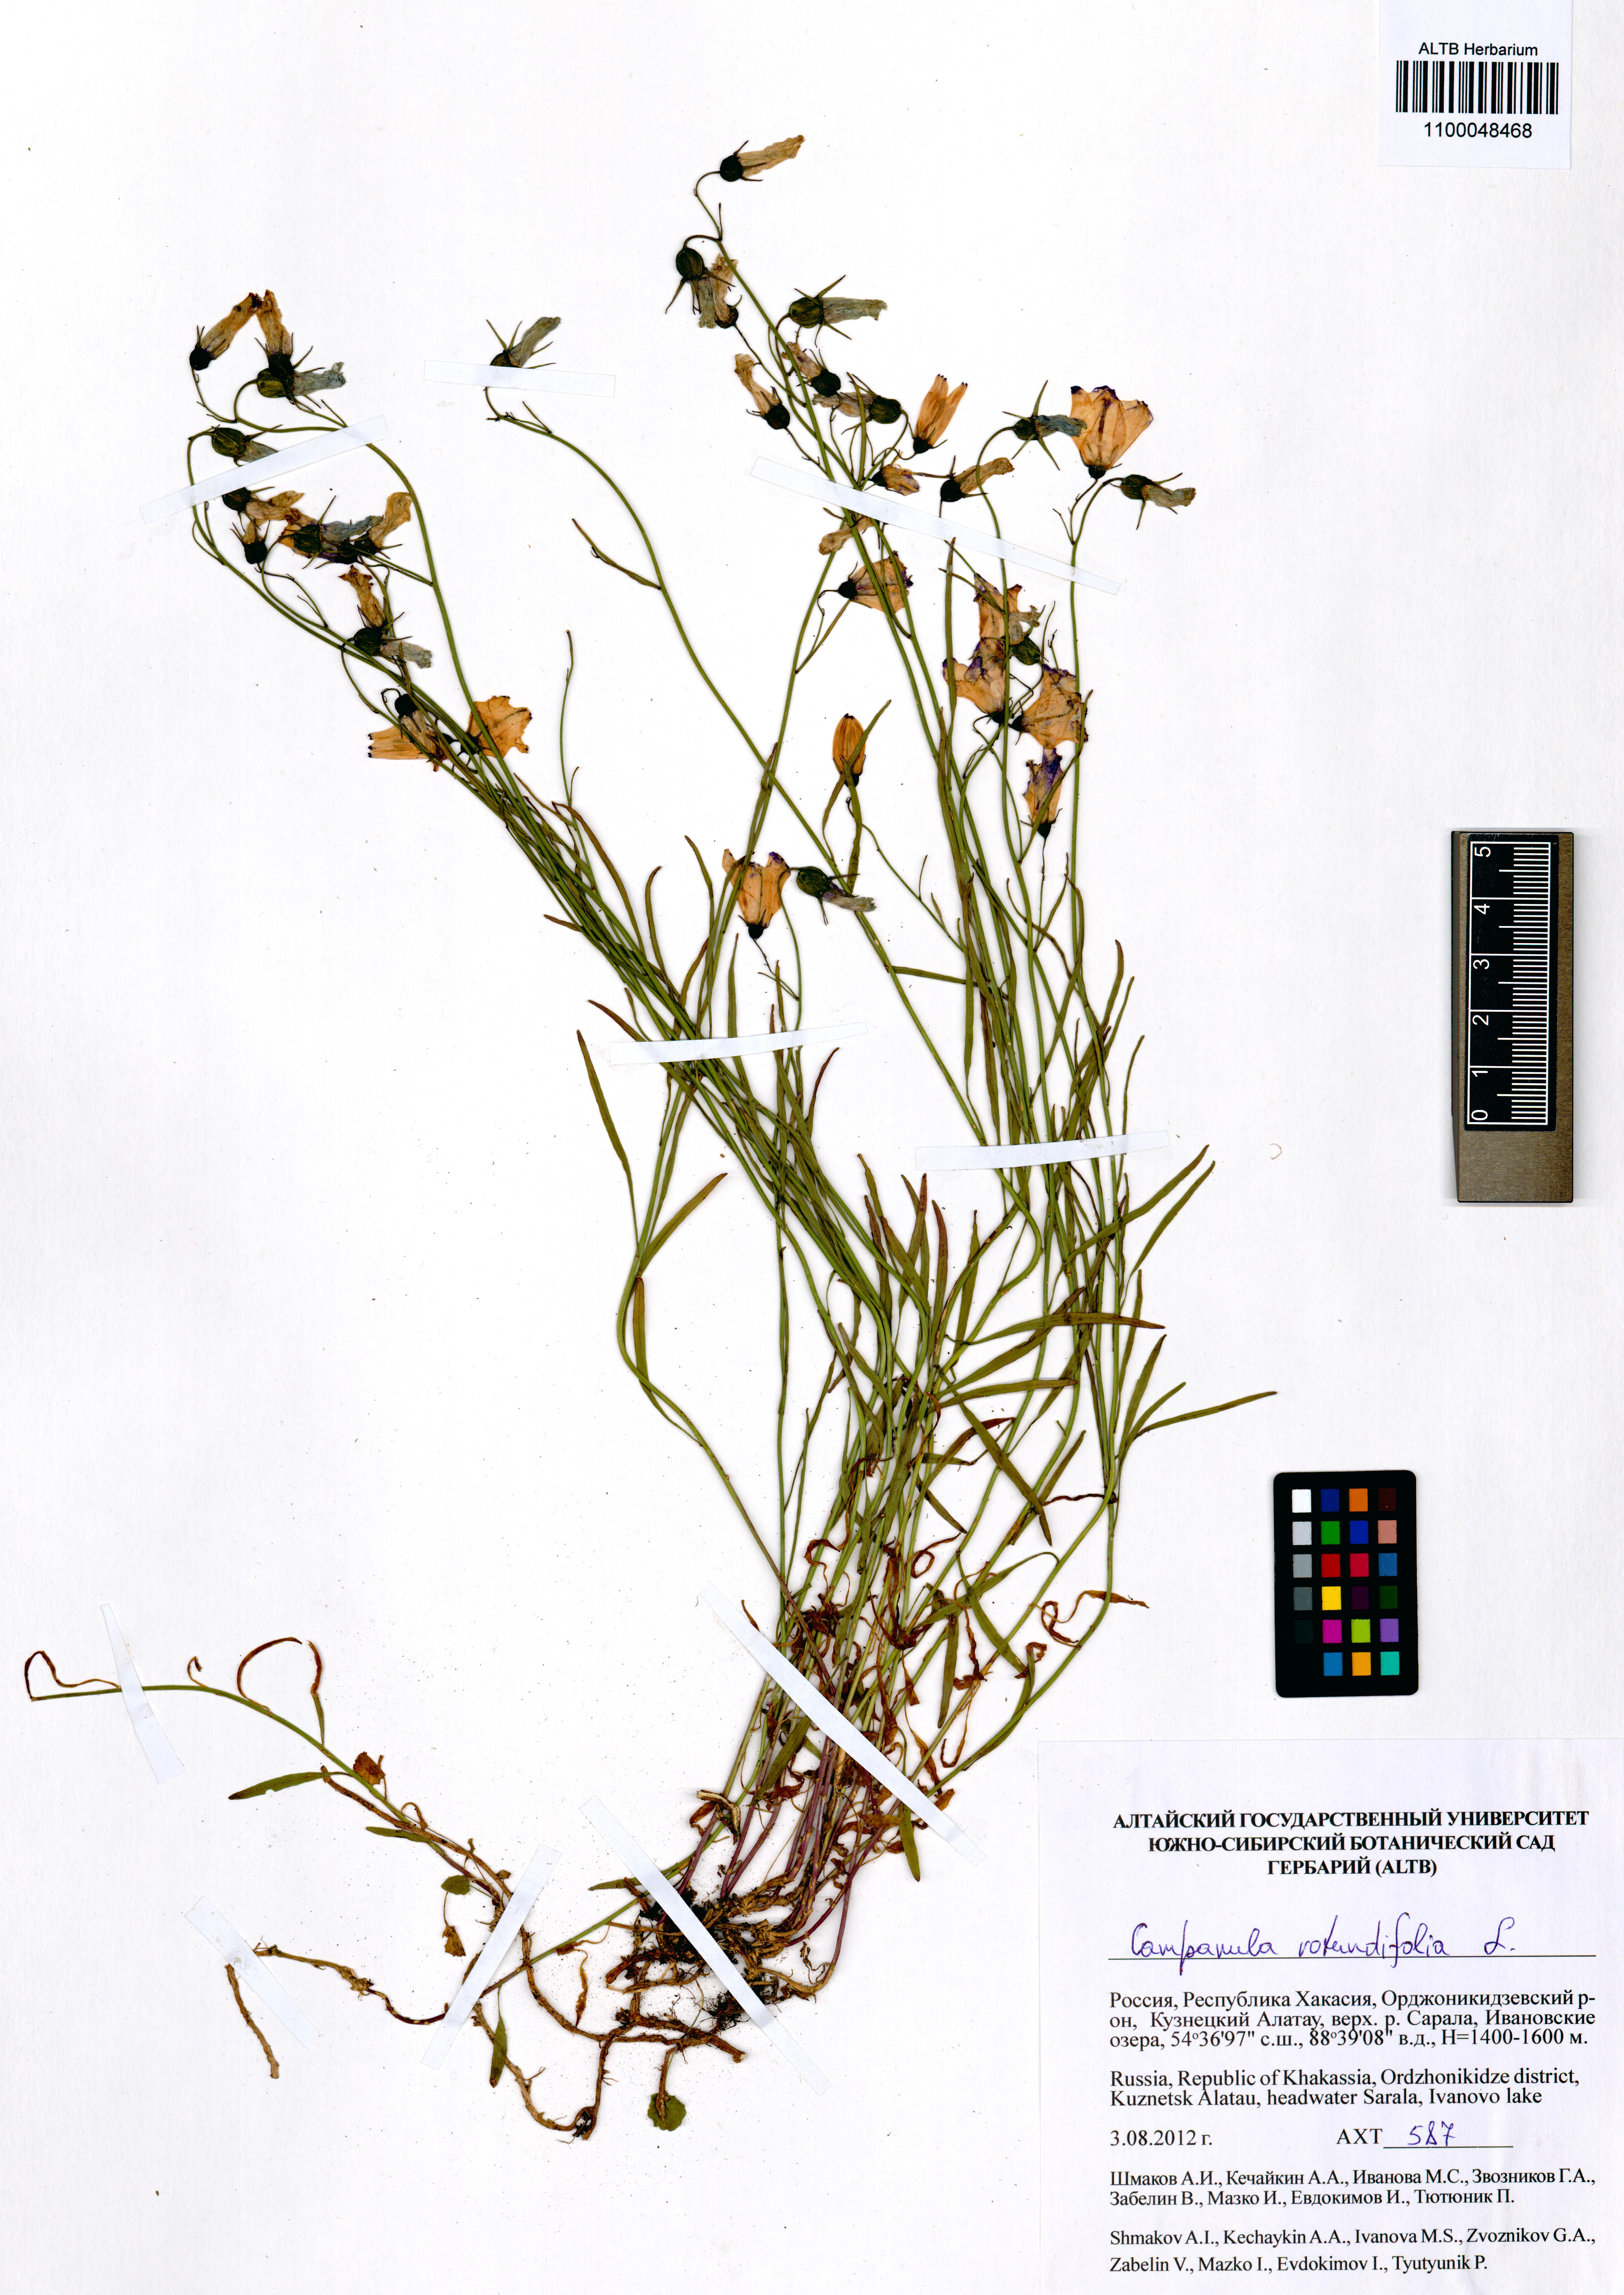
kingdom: Plantae
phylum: Tracheophyta
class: Magnoliopsida
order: Asterales
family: Campanulaceae
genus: Campanula
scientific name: Campanula rotundifolia
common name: Harebell
